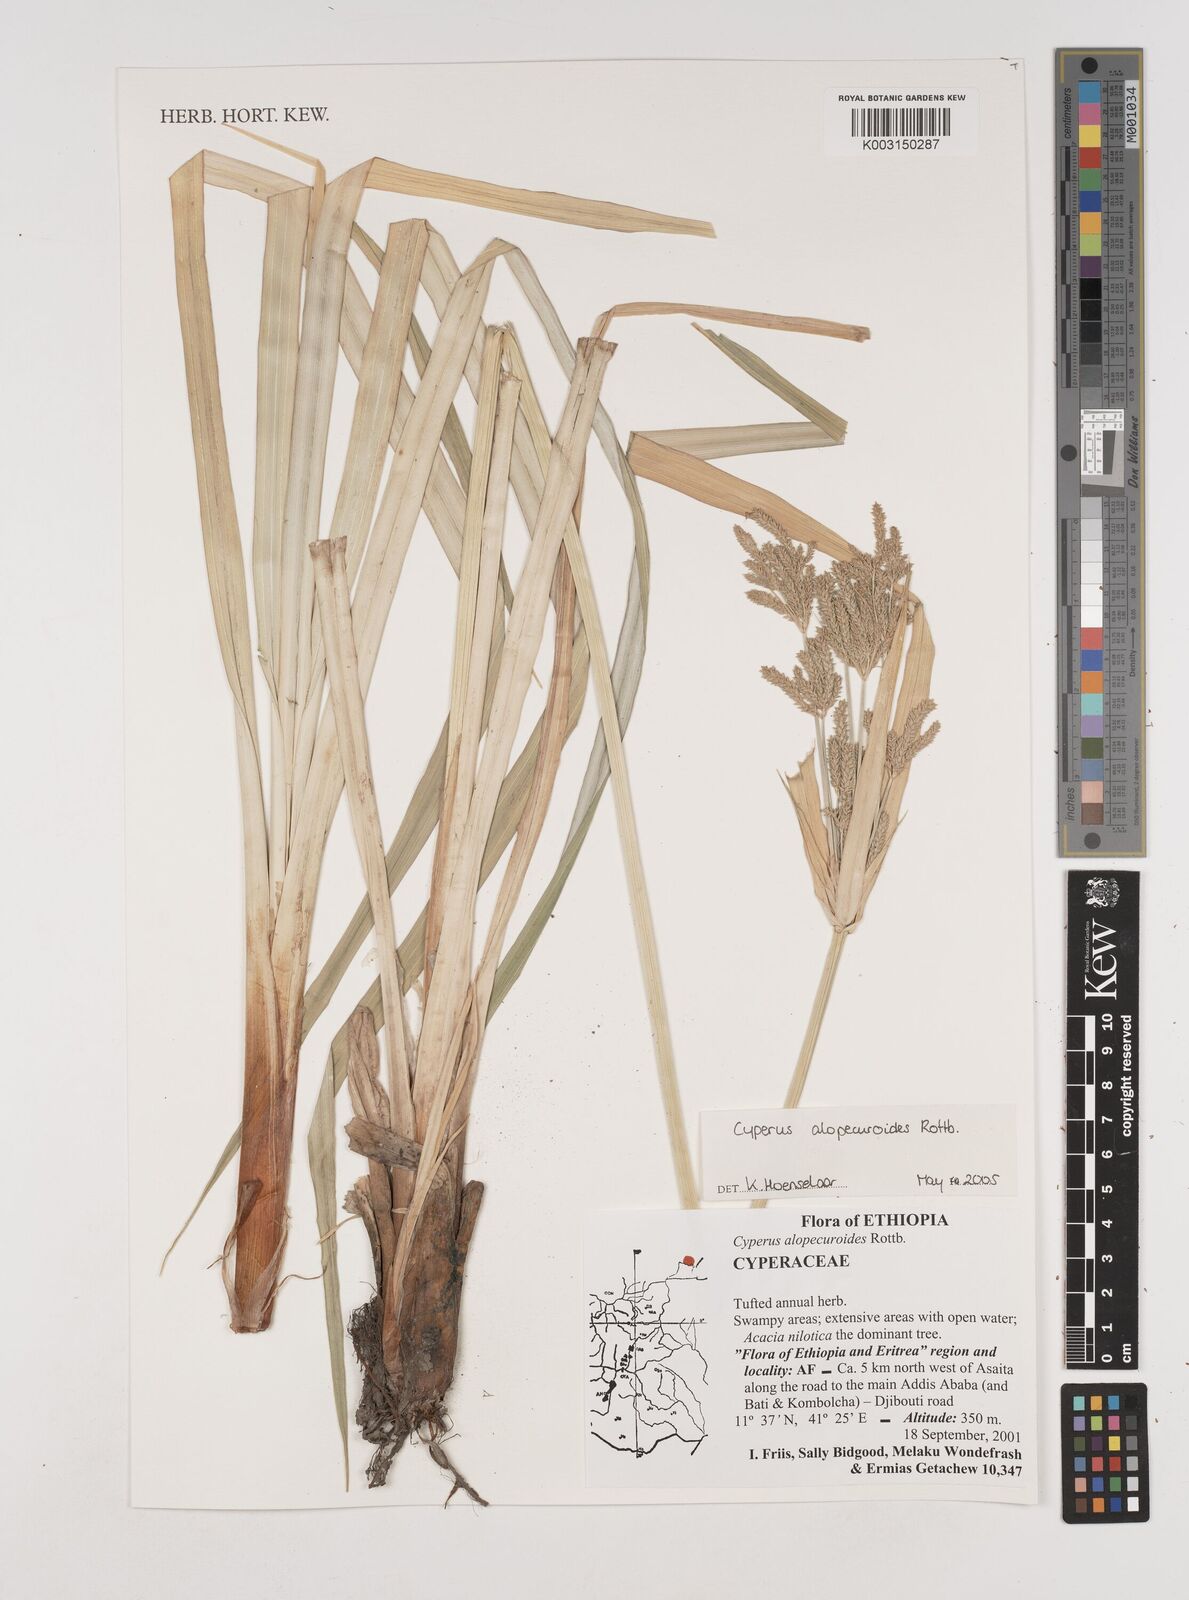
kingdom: Plantae
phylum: Tracheophyta
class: Liliopsida
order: Poales
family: Cyperaceae
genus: Cyperus
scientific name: Cyperus alopecuroides
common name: Foxtail flatsedge
